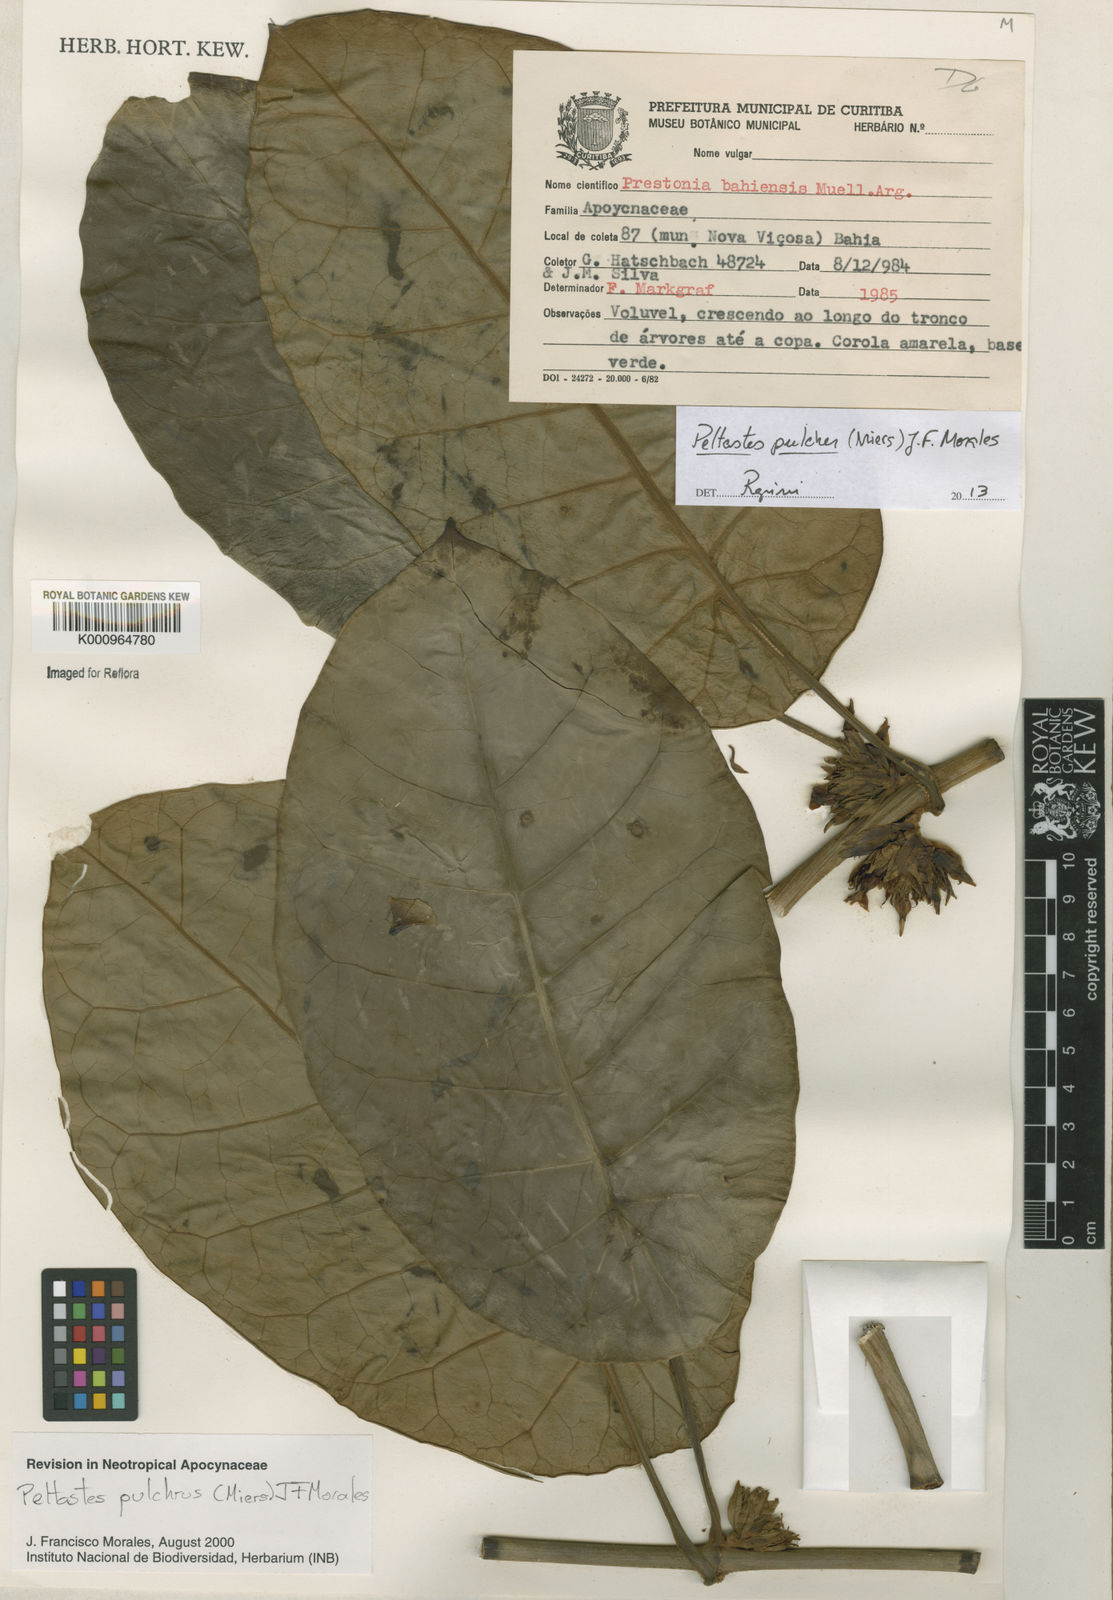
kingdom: Plantae
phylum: Tracheophyta
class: Magnoliopsida
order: Gentianales
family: Apocynaceae
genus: Macropharynx
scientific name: Macropharynx pulchra
